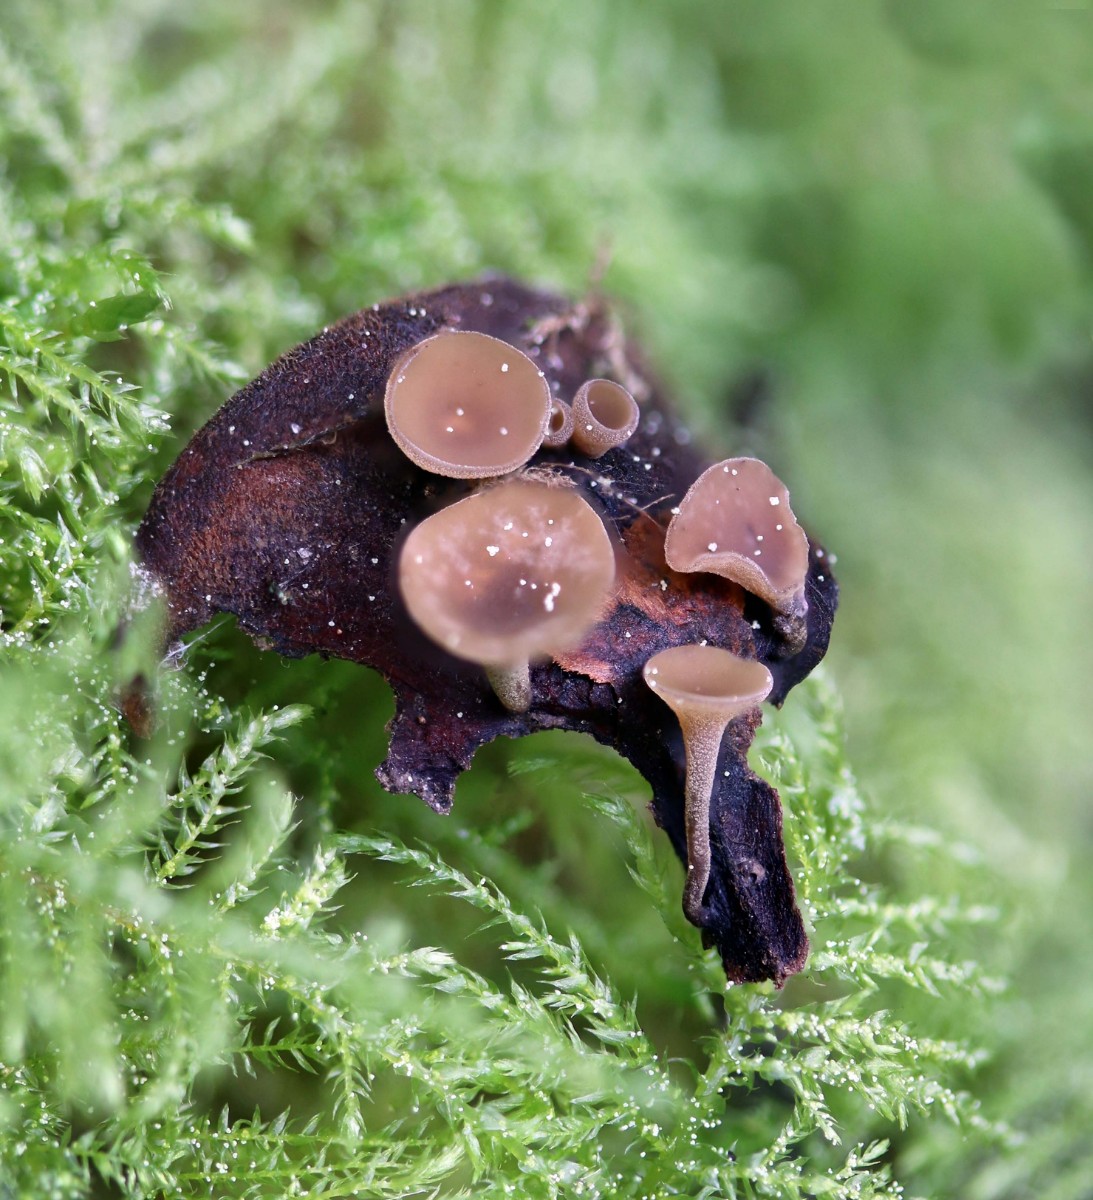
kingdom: Fungi
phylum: Ascomycota
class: Leotiomycetes
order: Helotiales
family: Sclerotiniaceae
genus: Ciboria
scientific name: Ciboria rufofusca
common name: kogleskæl-knoldskive
